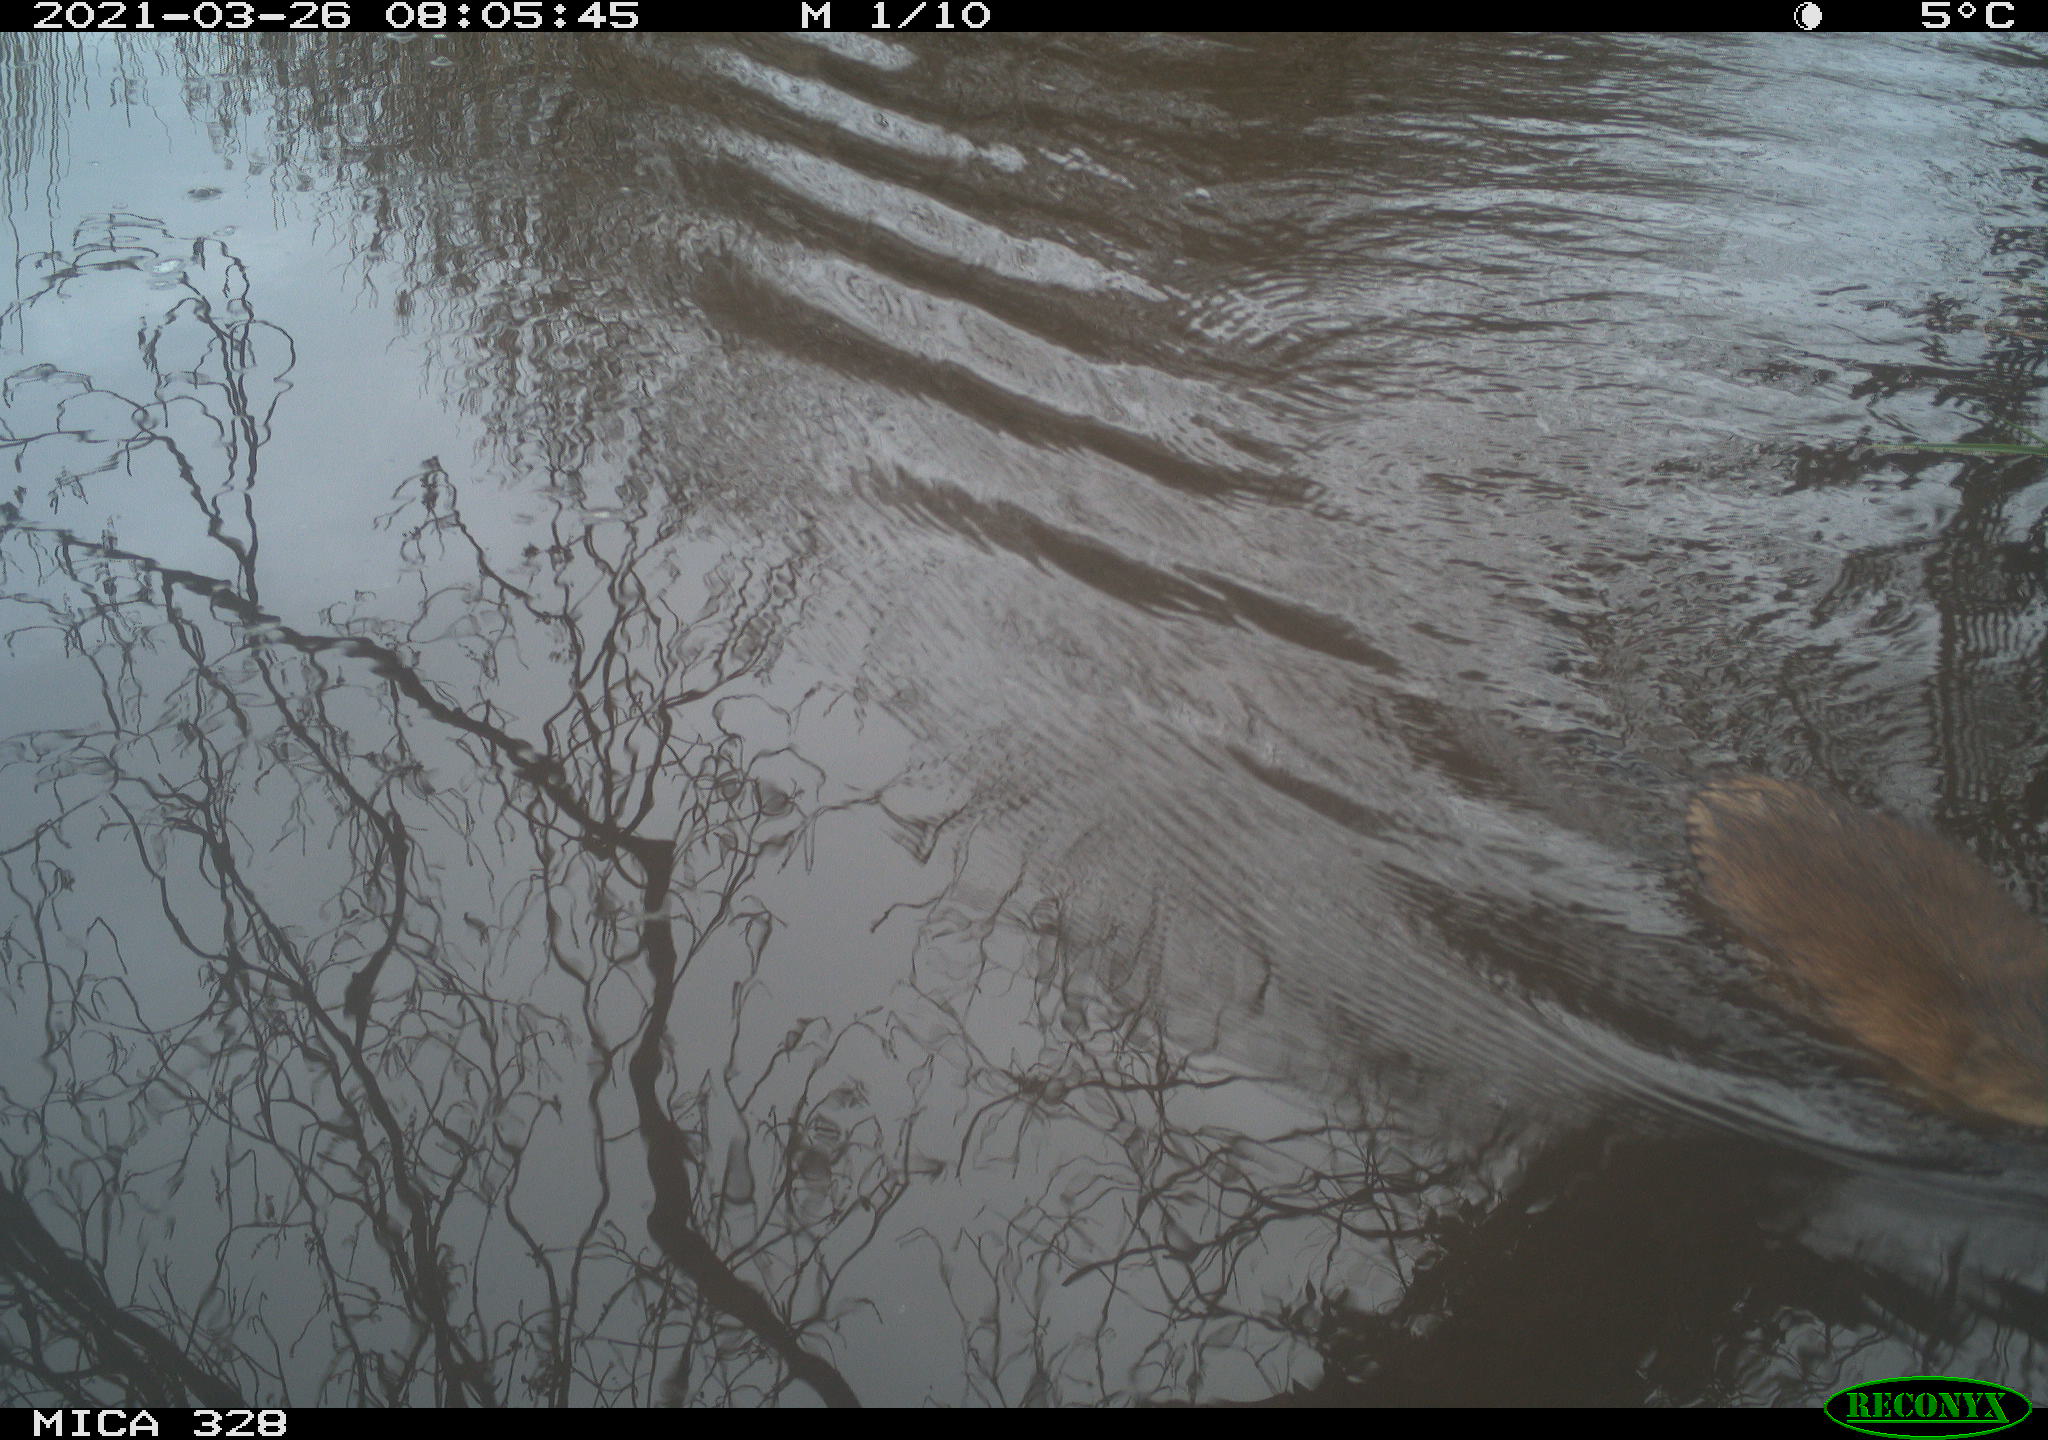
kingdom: Animalia
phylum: Chordata
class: Mammalia
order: Rodentia
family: Cricetidae
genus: Ondatra
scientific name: Ondatra zibethicus
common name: Muskrat
